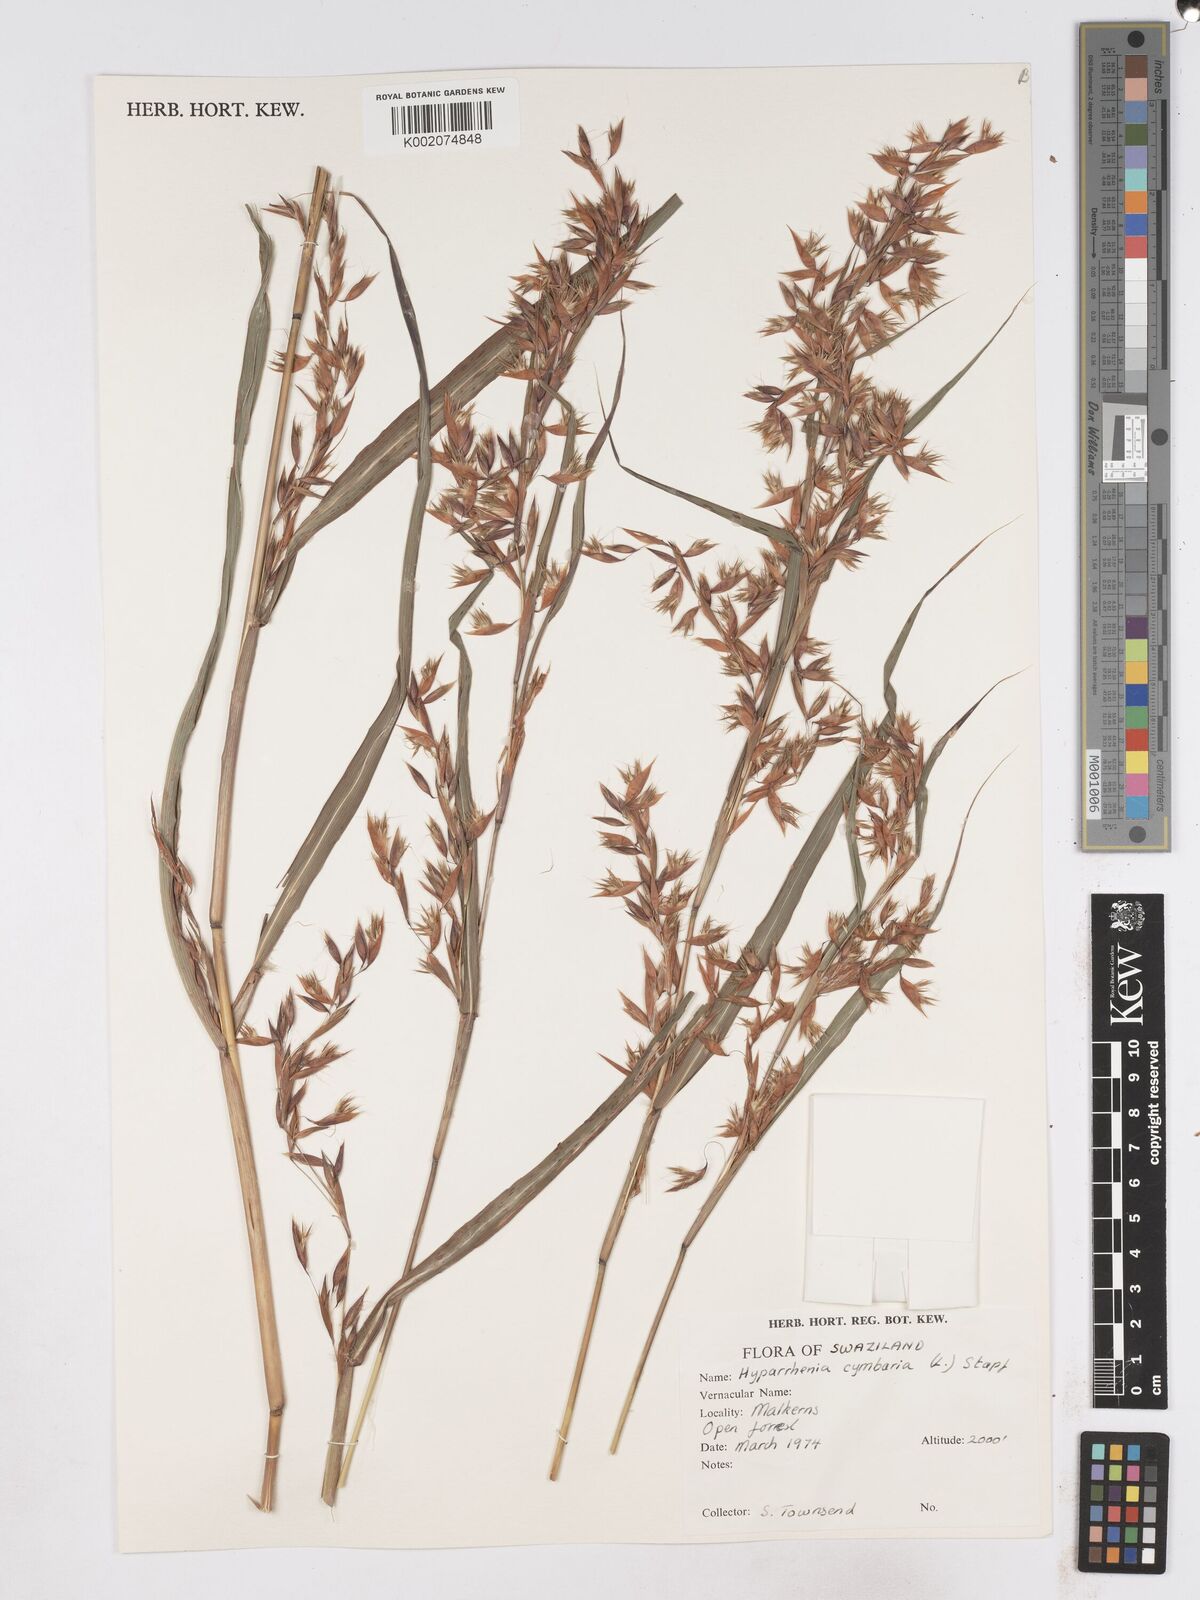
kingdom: Plantae
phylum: Tracheophyta
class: Liliopsida
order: Poales
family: Poaceae
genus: Hyparrhenia
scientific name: Hyparrhenia cymbaria
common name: Boat thatching grass
